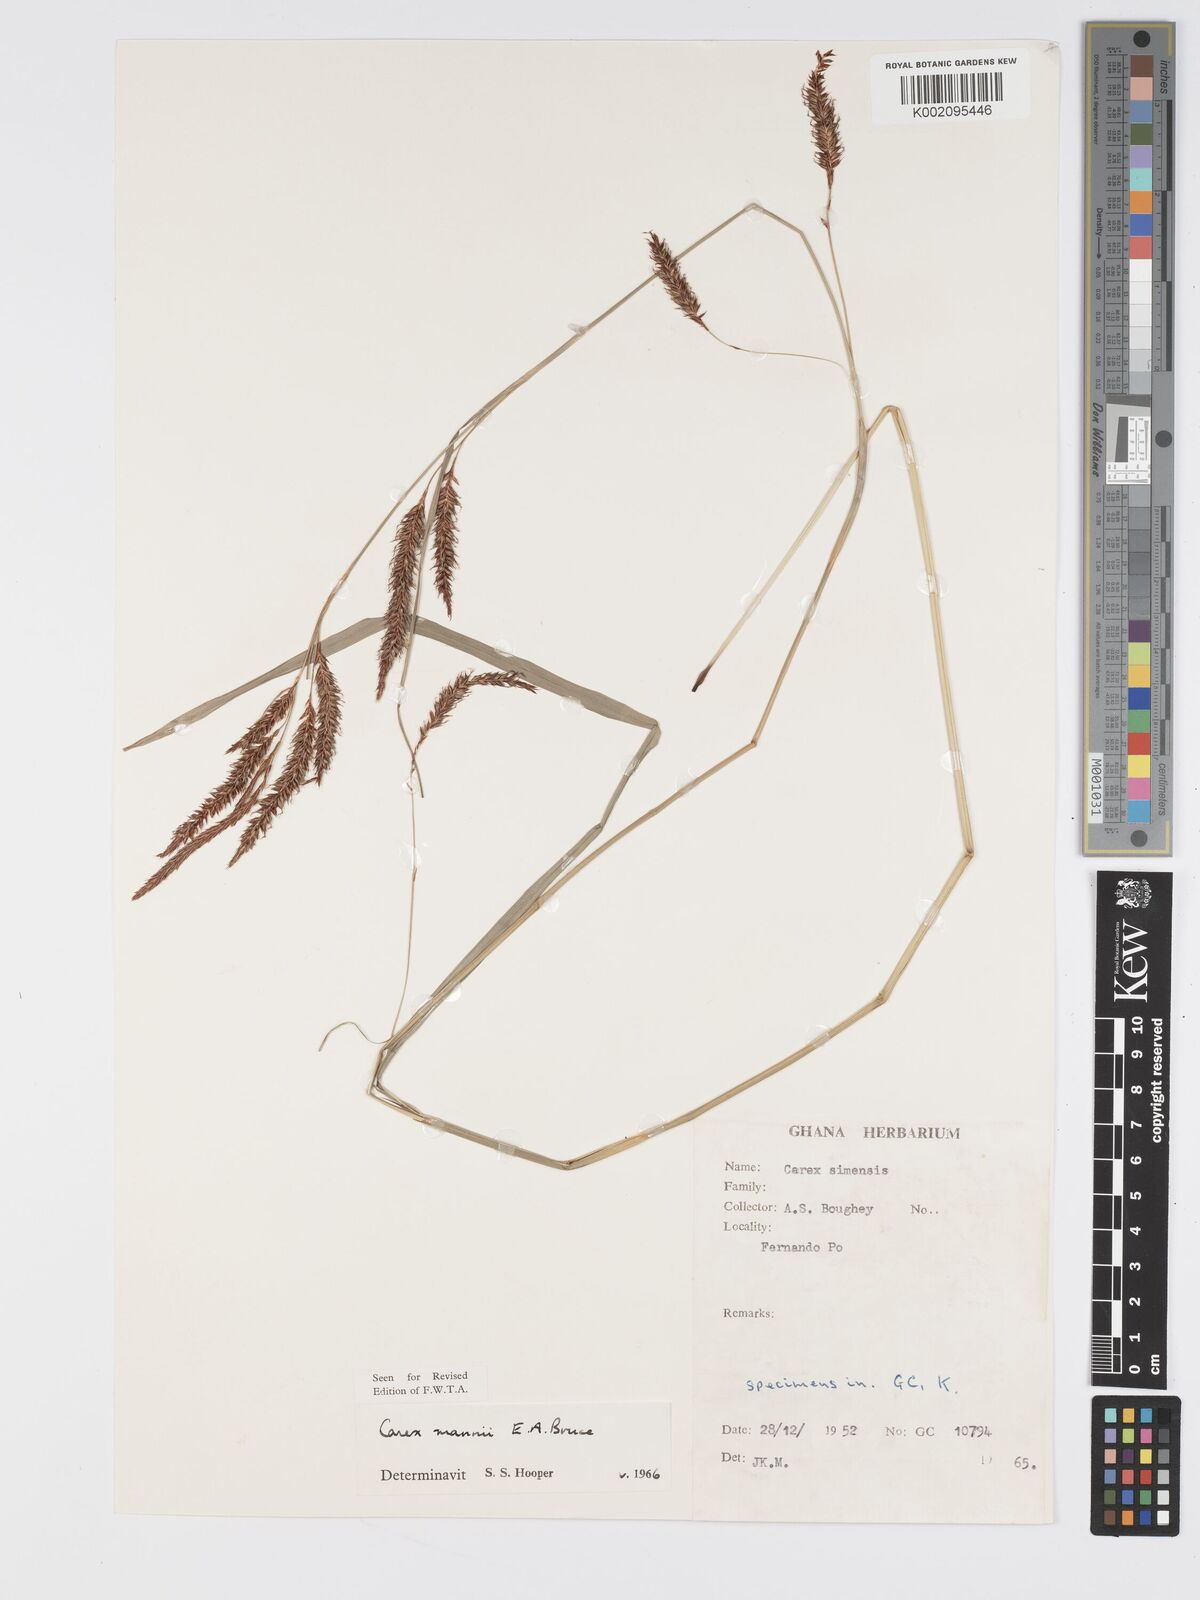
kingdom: Plantae
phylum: Tracheophyta
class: Liliopsida
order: Poales
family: Cyperaceae
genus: Carex
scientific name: Carex mannii
